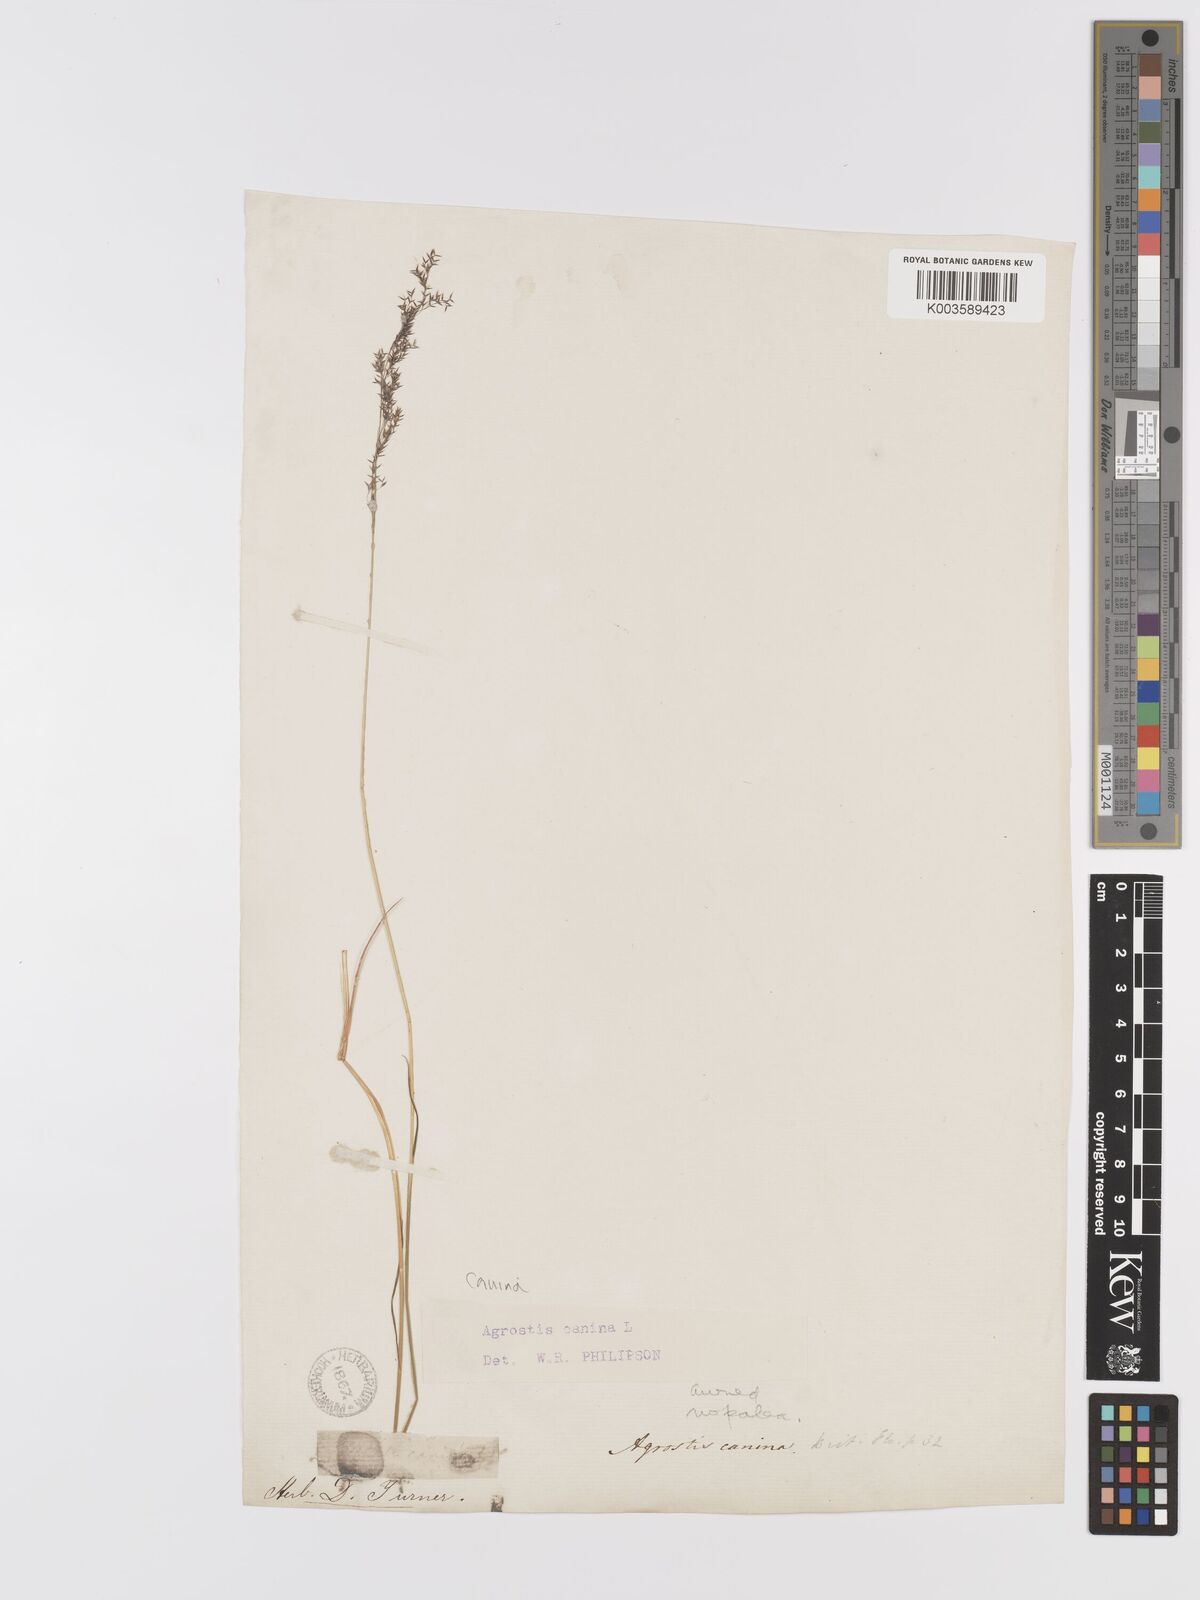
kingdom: Plantae
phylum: Tracheophyta
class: Liliopsida
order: Poales
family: Poaceae
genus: Agrostis
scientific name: Agrostis canina
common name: Velvet bent
